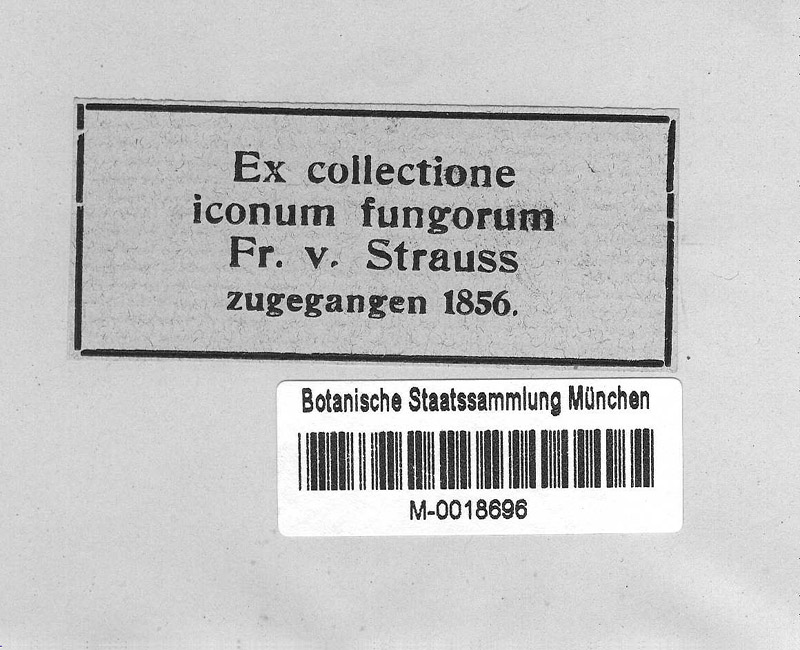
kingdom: Fungi
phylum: Ascomycota
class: Leotiomycetes
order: Helotiales
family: Erysiphaceae
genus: Erysiphe
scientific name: Erysiphe adunca
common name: Willow mildew
